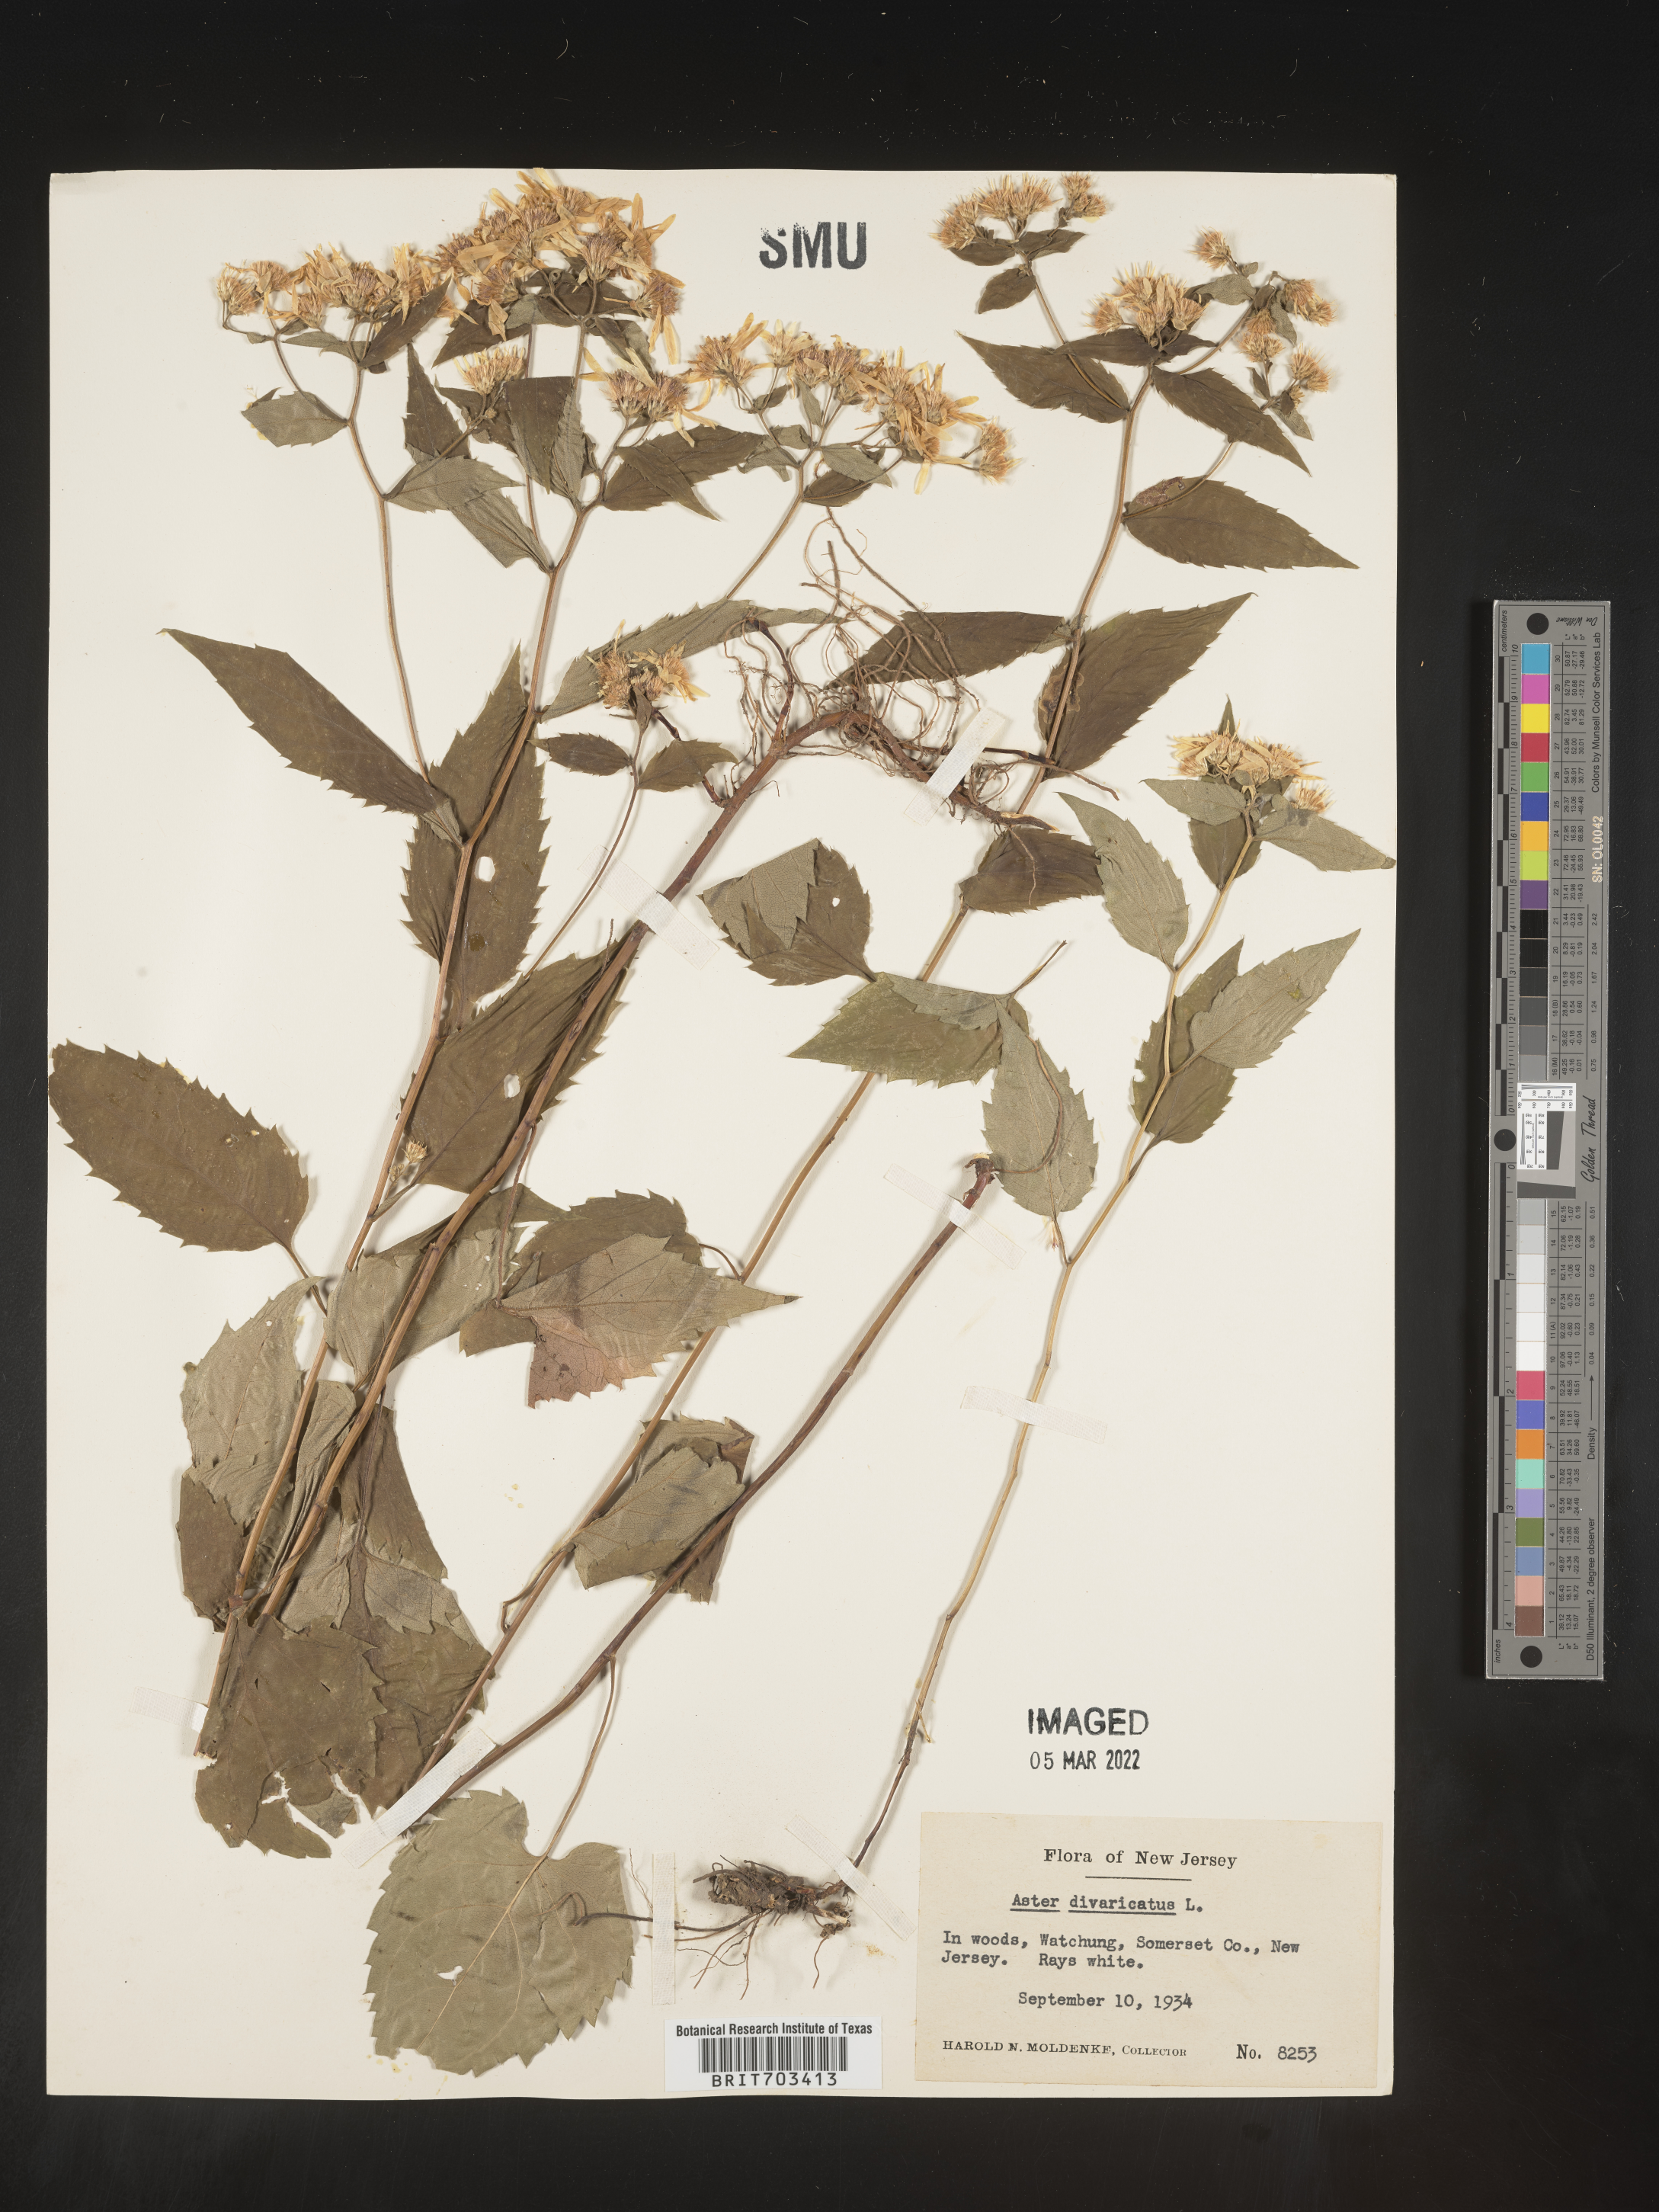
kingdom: Plantae
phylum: Tracheophyta
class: Magnoliopsida
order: Asterales
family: Asteraceae
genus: Eurybia
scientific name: Eurybia divaricata
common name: White wood aster
